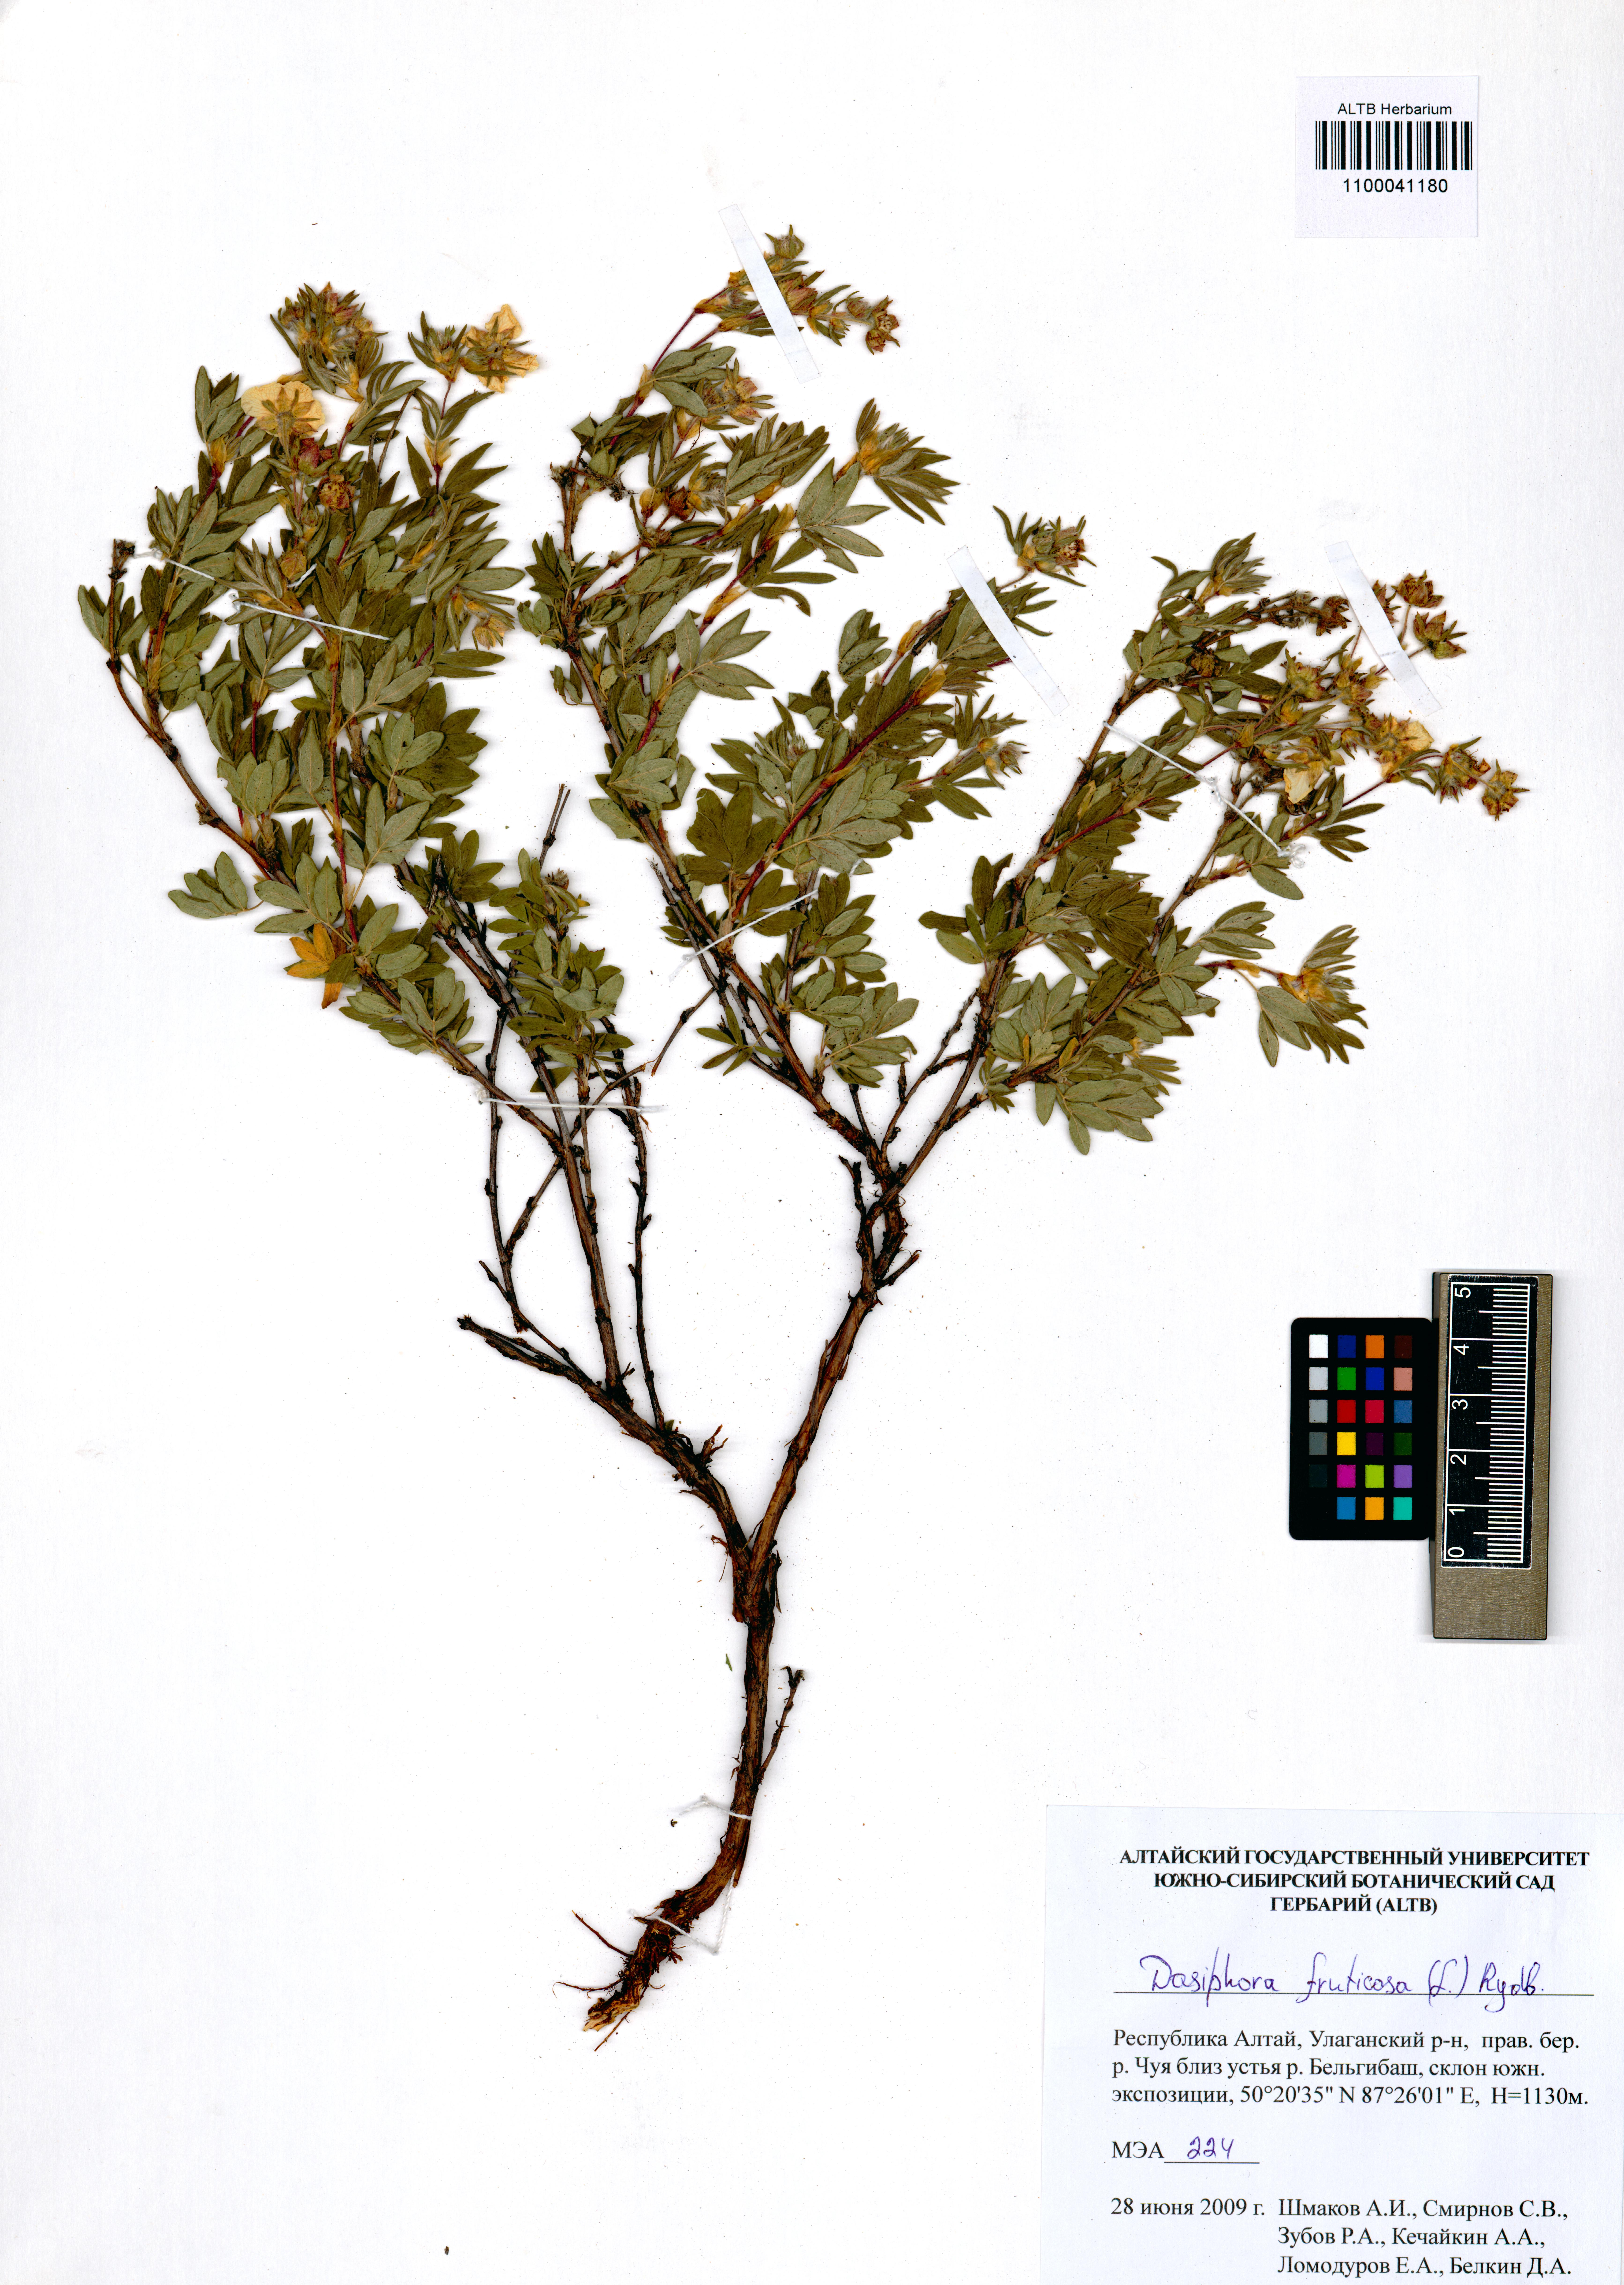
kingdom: Plantae
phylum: Tracheophyta
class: Magnoliopsida
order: Rosales
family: Rosaceae
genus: Dasiphora
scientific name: Dasiphora fruticosa
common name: Shrubby cinquefoil
